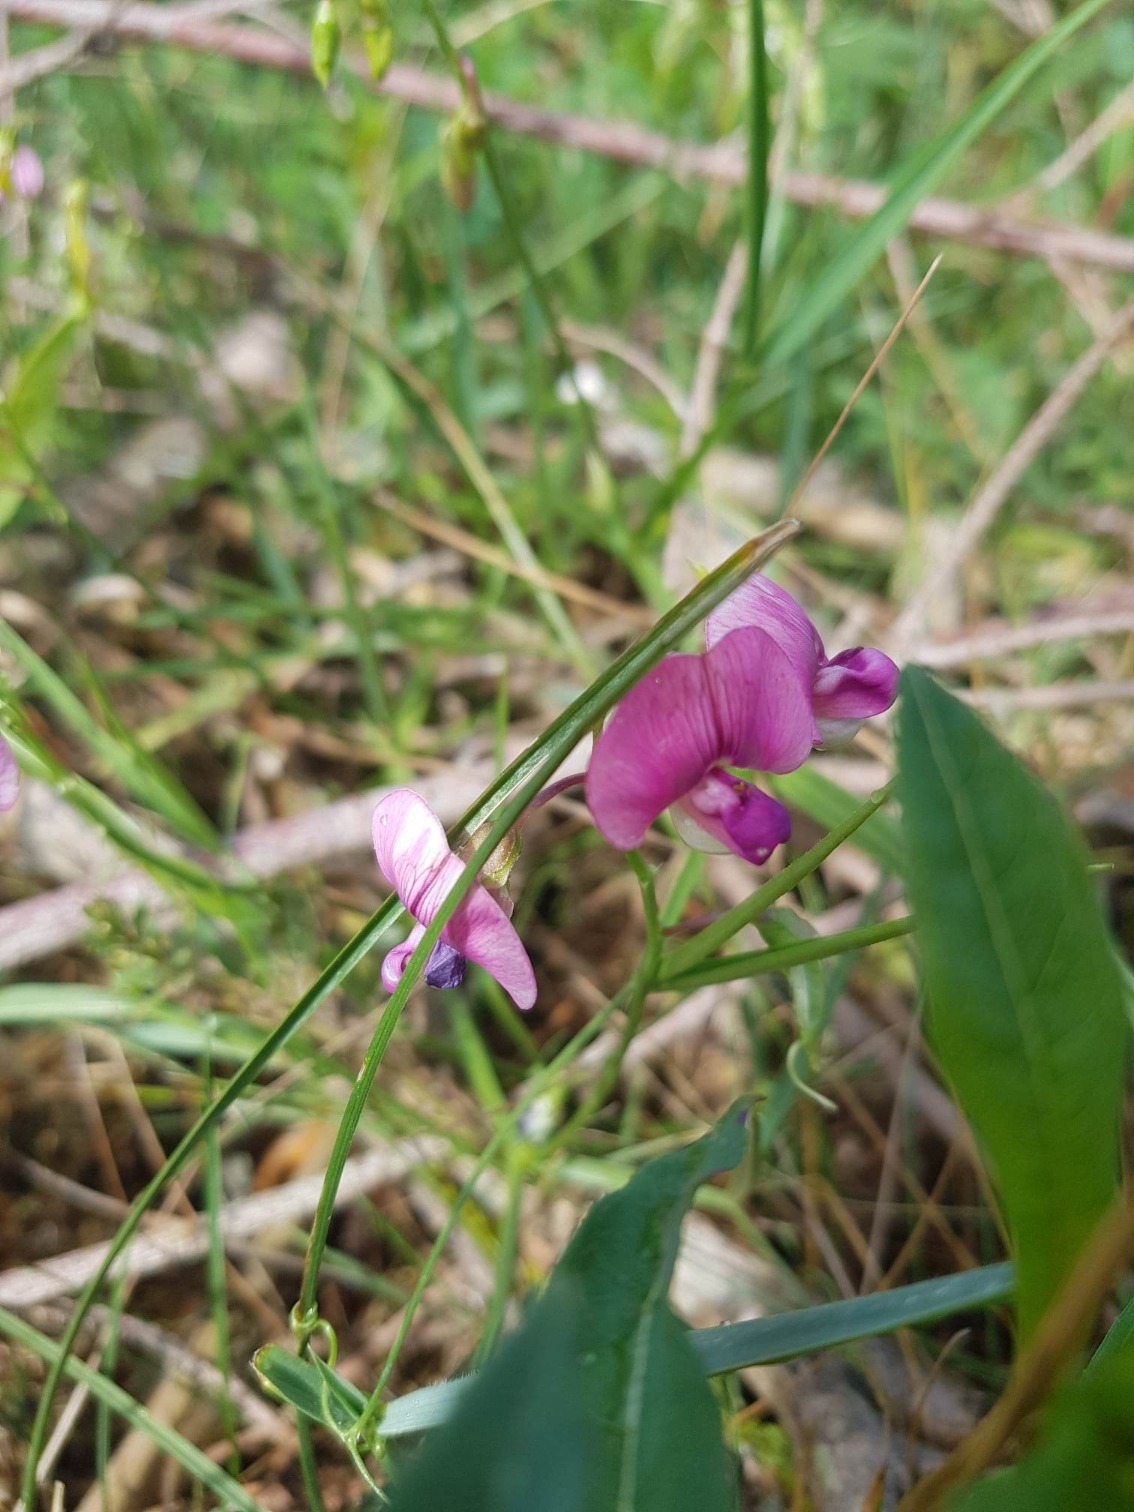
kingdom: Plantae
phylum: Tracheophyta
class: Magnoliopsida
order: Fabales
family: Fabaceae
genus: Lathyrus
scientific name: Lathyrus sylvestris
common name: Skov-fladbælg
